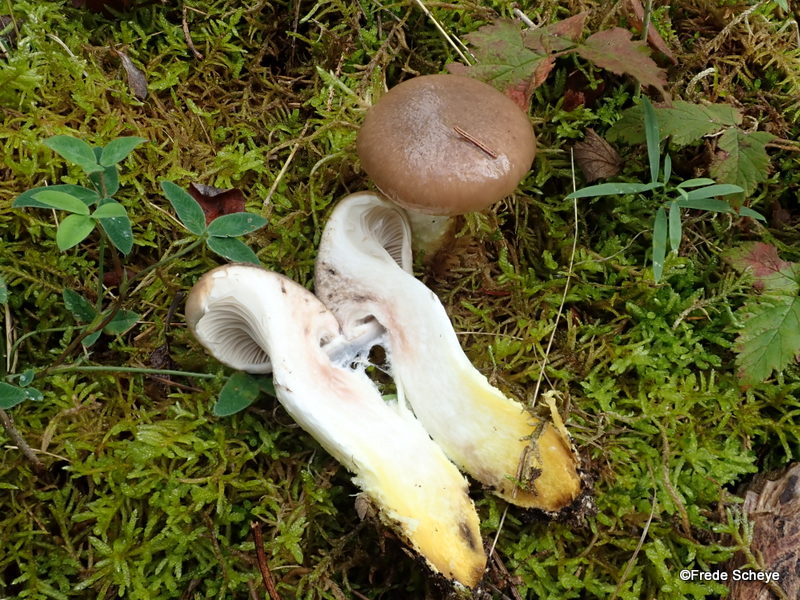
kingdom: Fungi
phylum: Basidiomycota
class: Agaricomycetes
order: Boletales
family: Gomphidiaceae
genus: Gomphidius
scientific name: Gomphidius glutinosus
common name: grå slimslør
